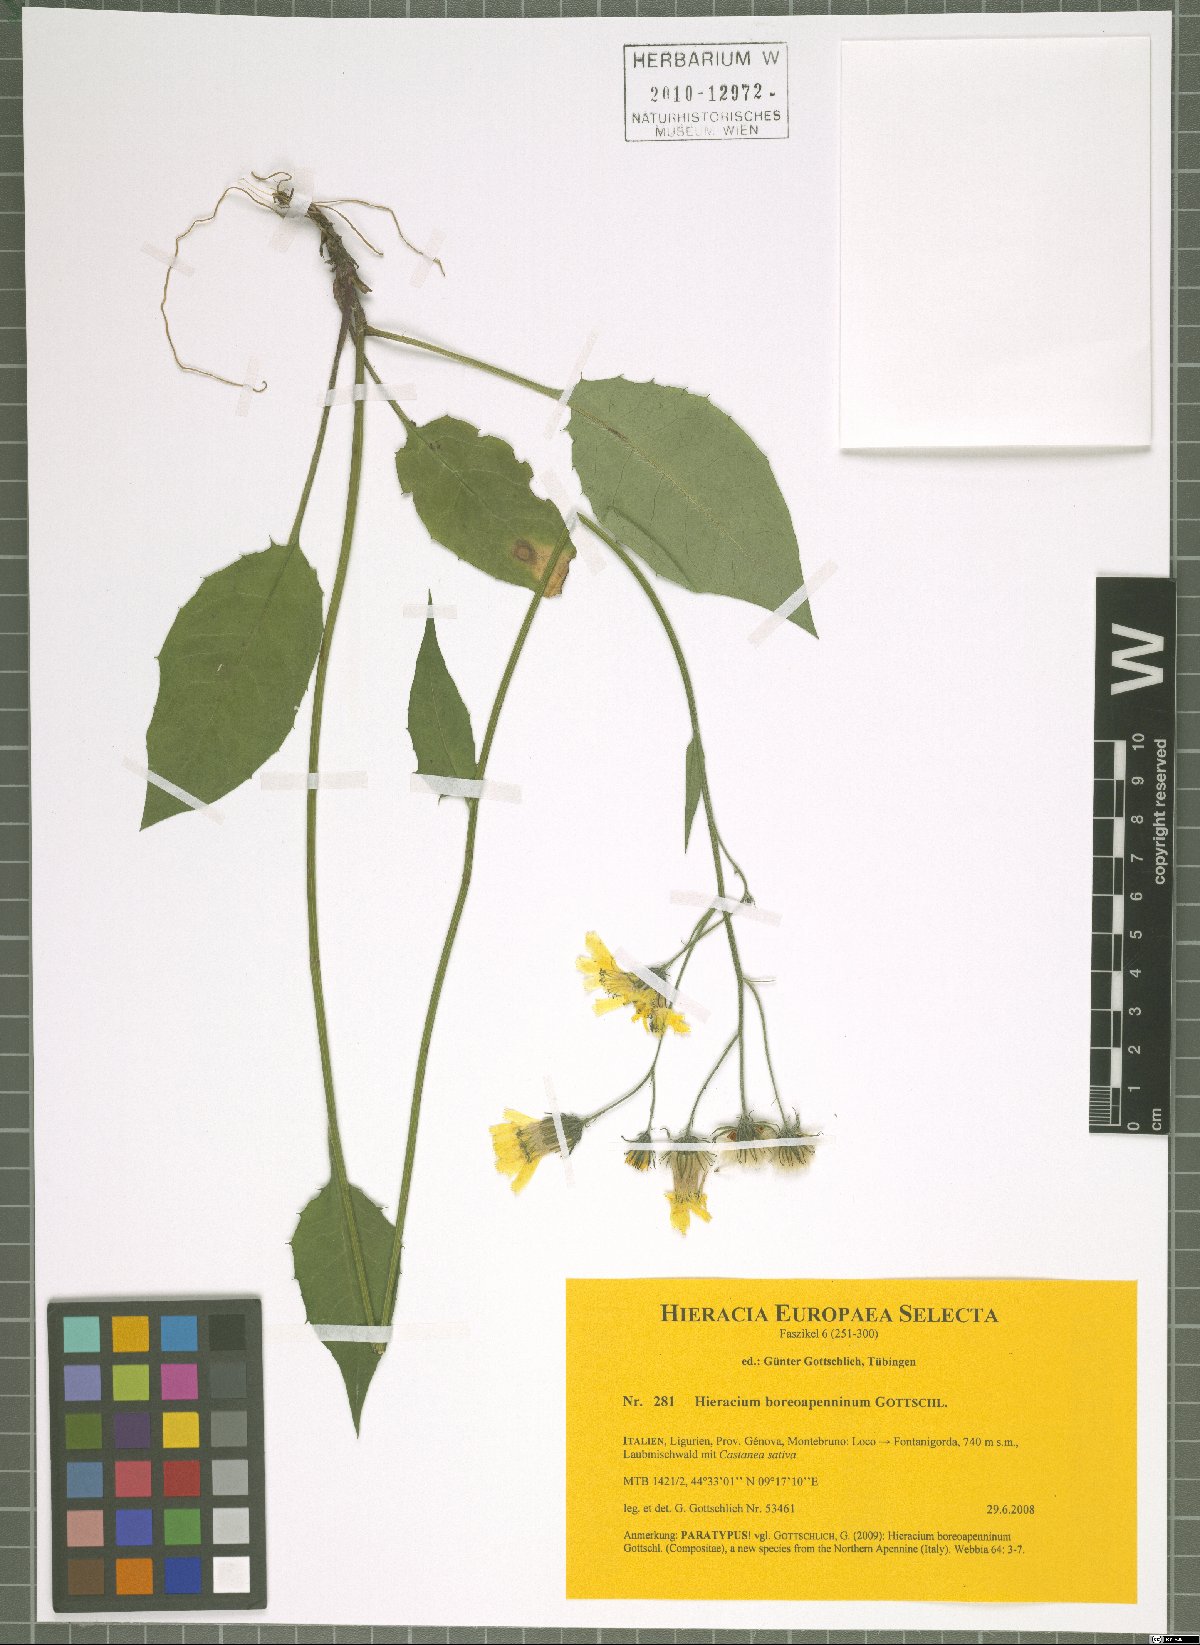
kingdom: Plantae
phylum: Tracheophyta
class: Magnoliopsida
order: Asterales
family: Asteraceae
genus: Hieracium
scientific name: Hieracium boreoapenninum
